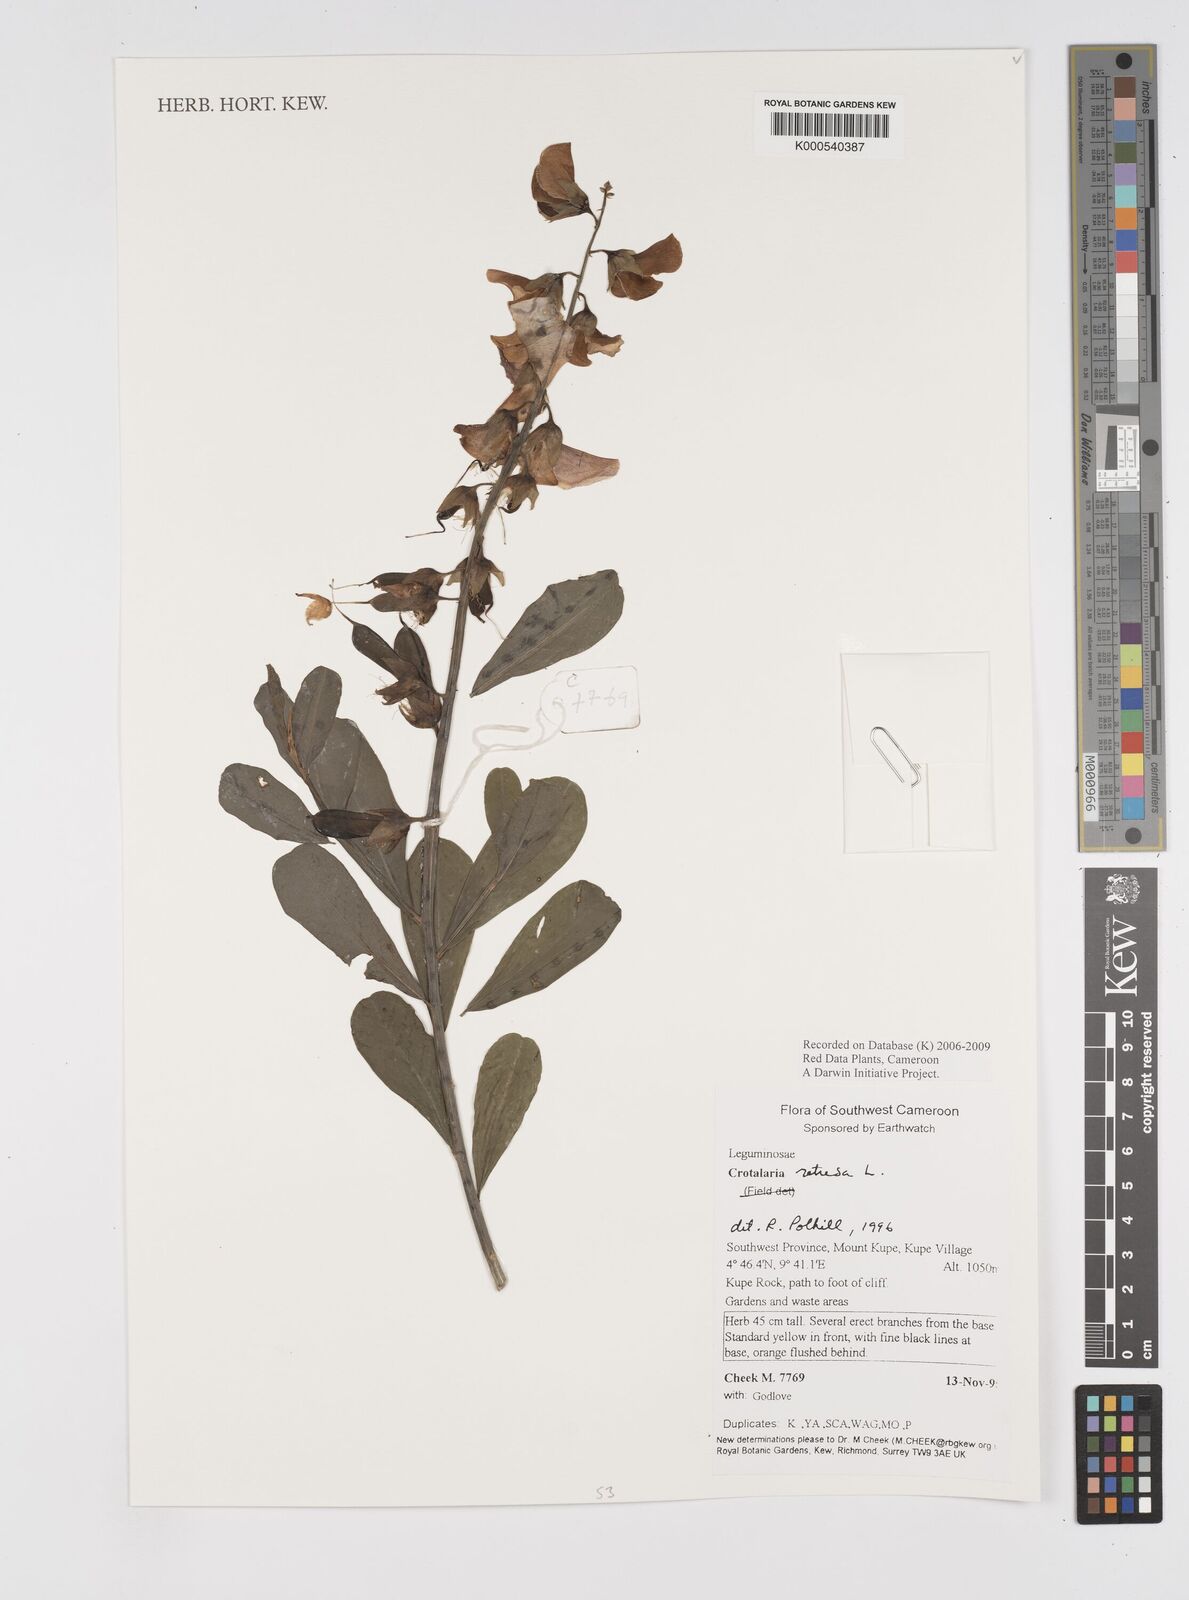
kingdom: Plantae
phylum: Tracheophyta
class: Magnoliopsida
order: Fabales
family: Fabaceae
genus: Crotalaria
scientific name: Crotalaria retusa
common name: Rattleweed
